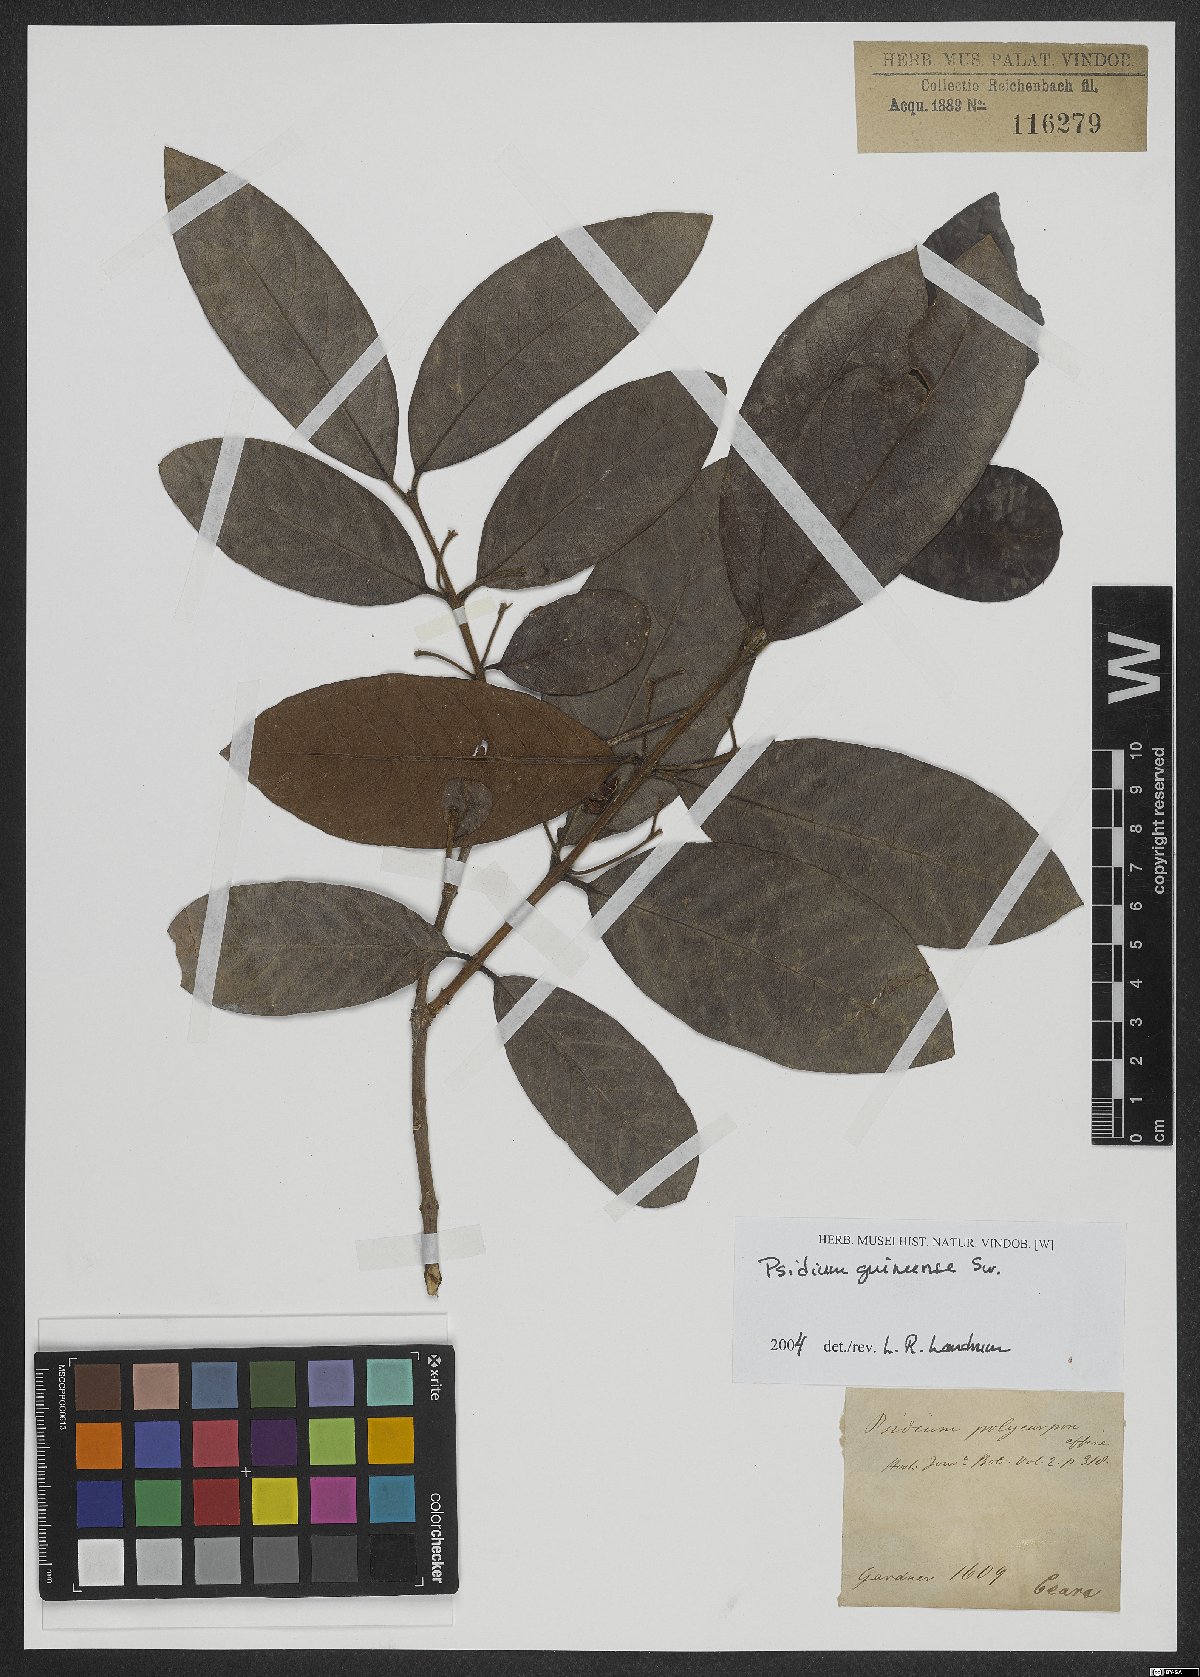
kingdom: Plantae
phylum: Tracheophyta
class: Magnoliopsida
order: Myrtales
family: Myrtaceae
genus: Psidium
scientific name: Psidium guineense
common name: Brazilian guava
